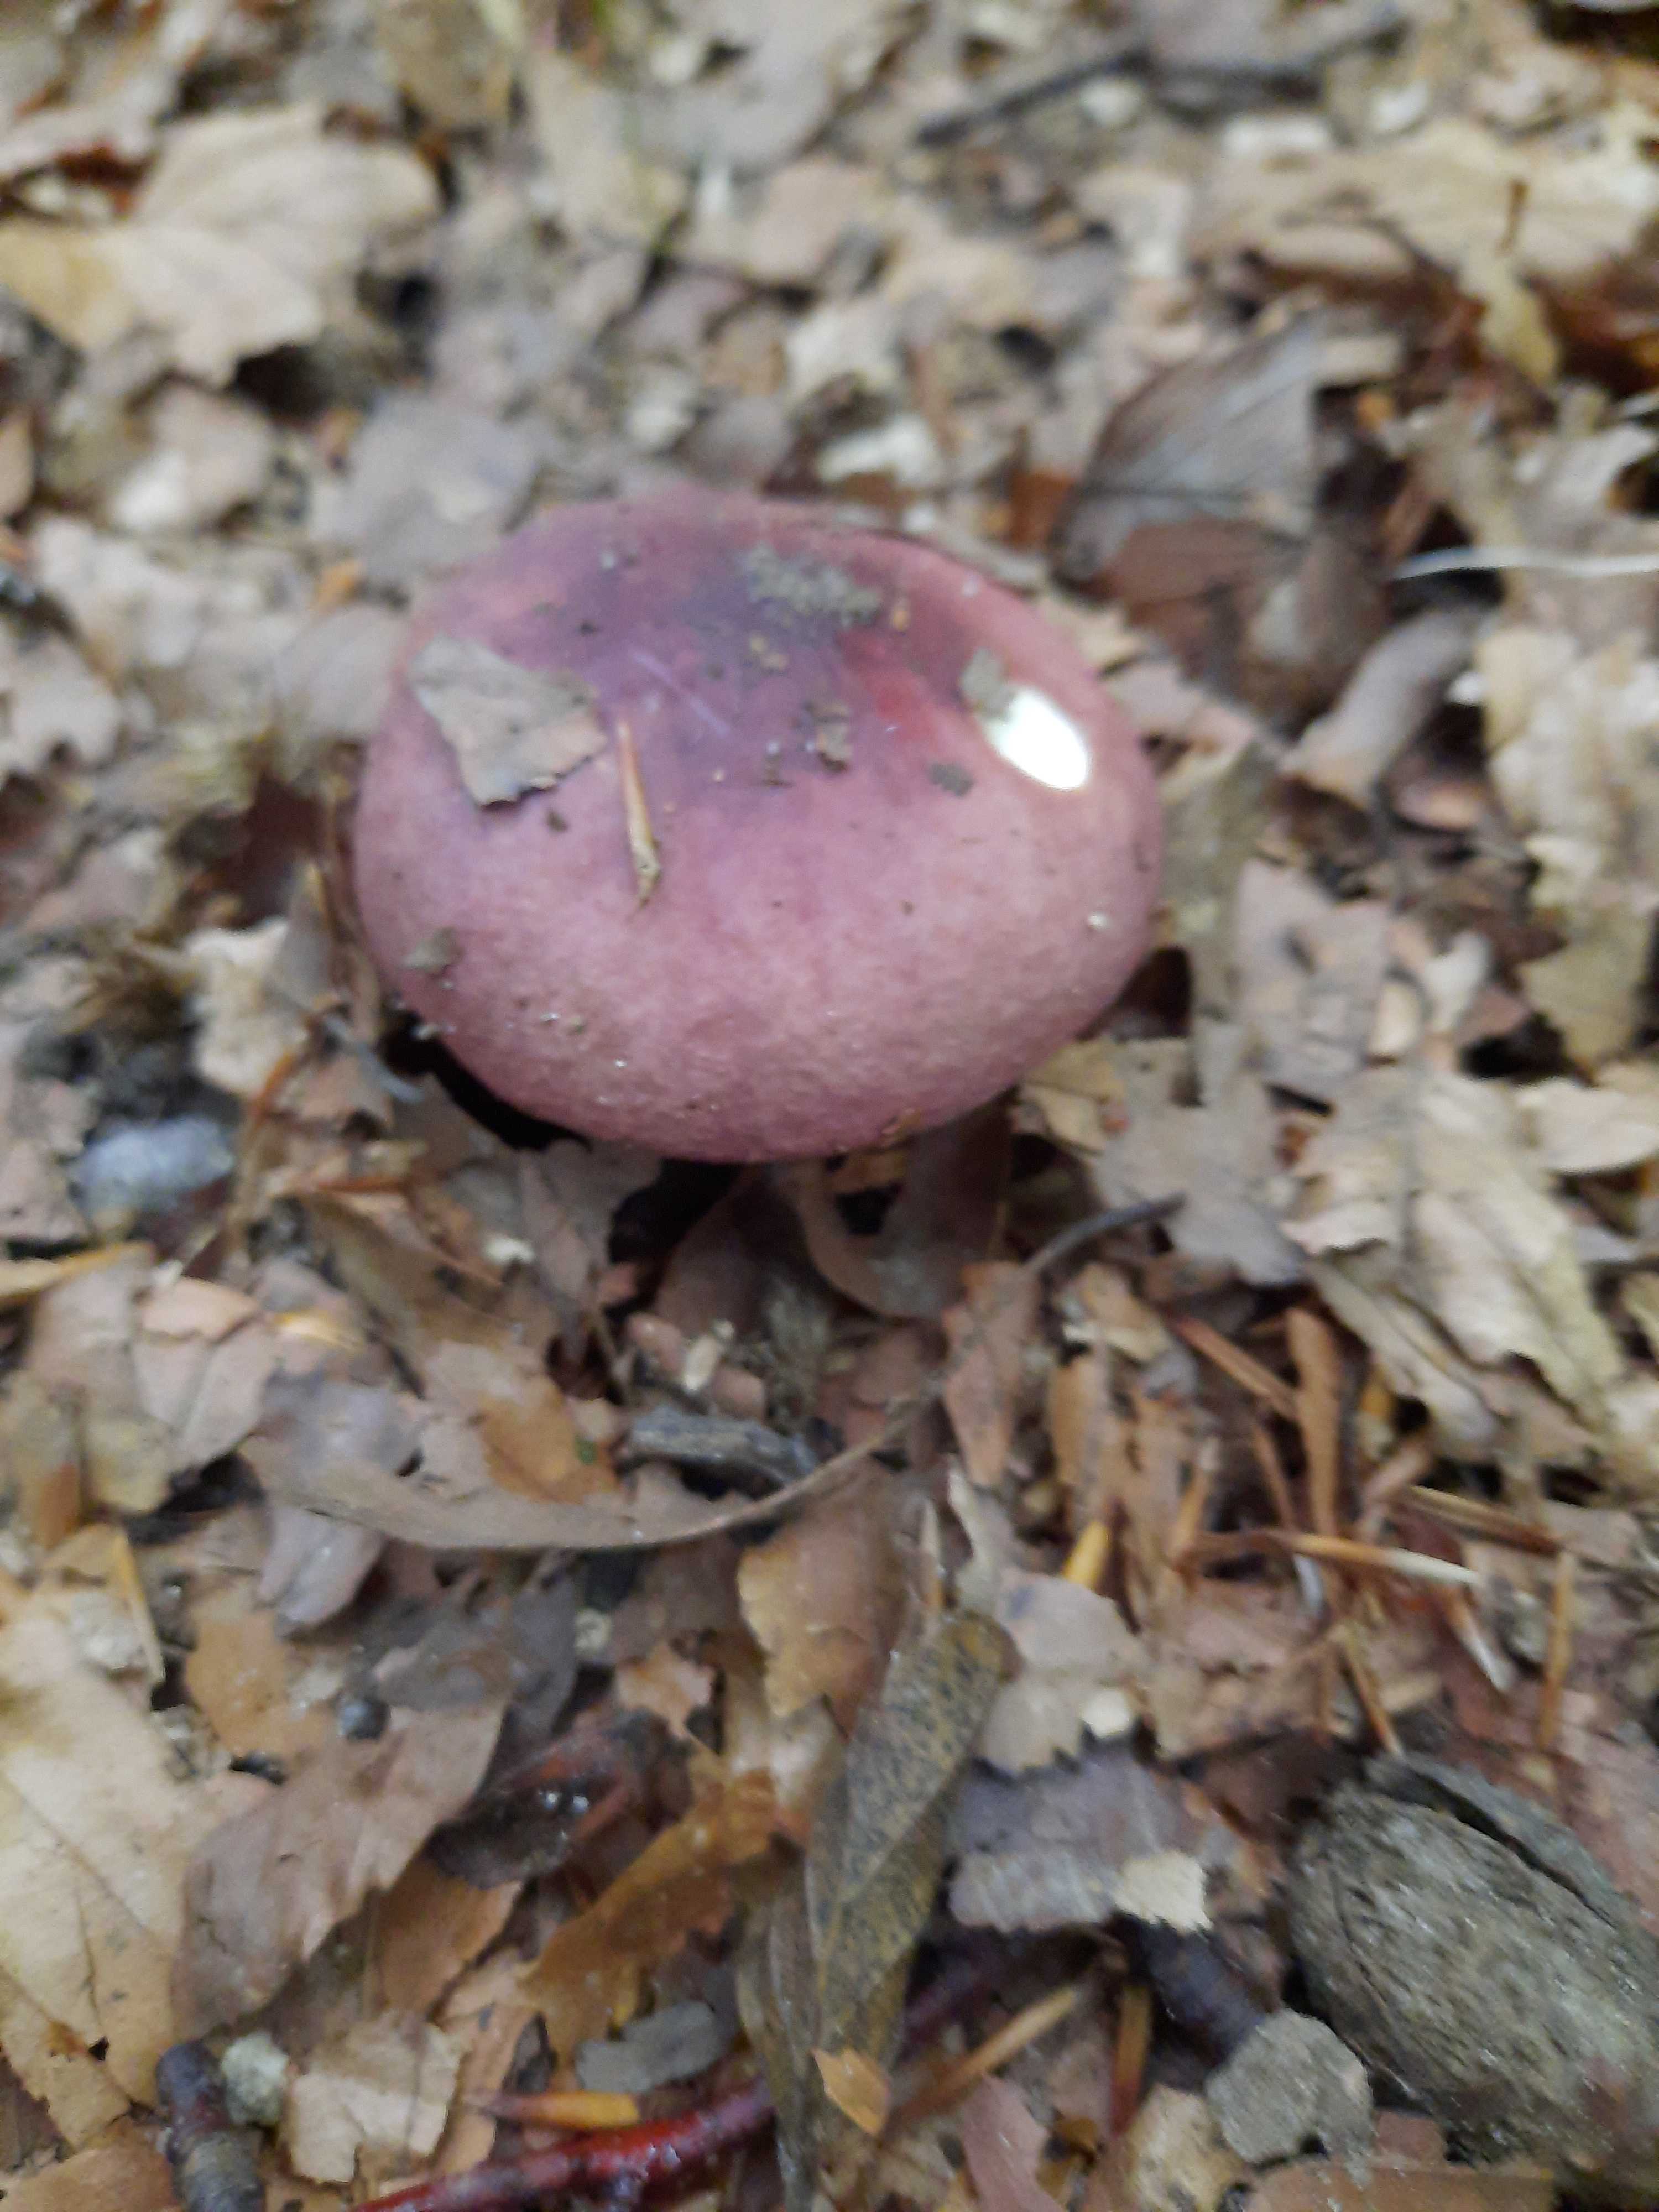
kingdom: Fungi
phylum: Basidiomycota
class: Agaricomycetes
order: Russulales
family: Russulaceae
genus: Russula
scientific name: Russula
